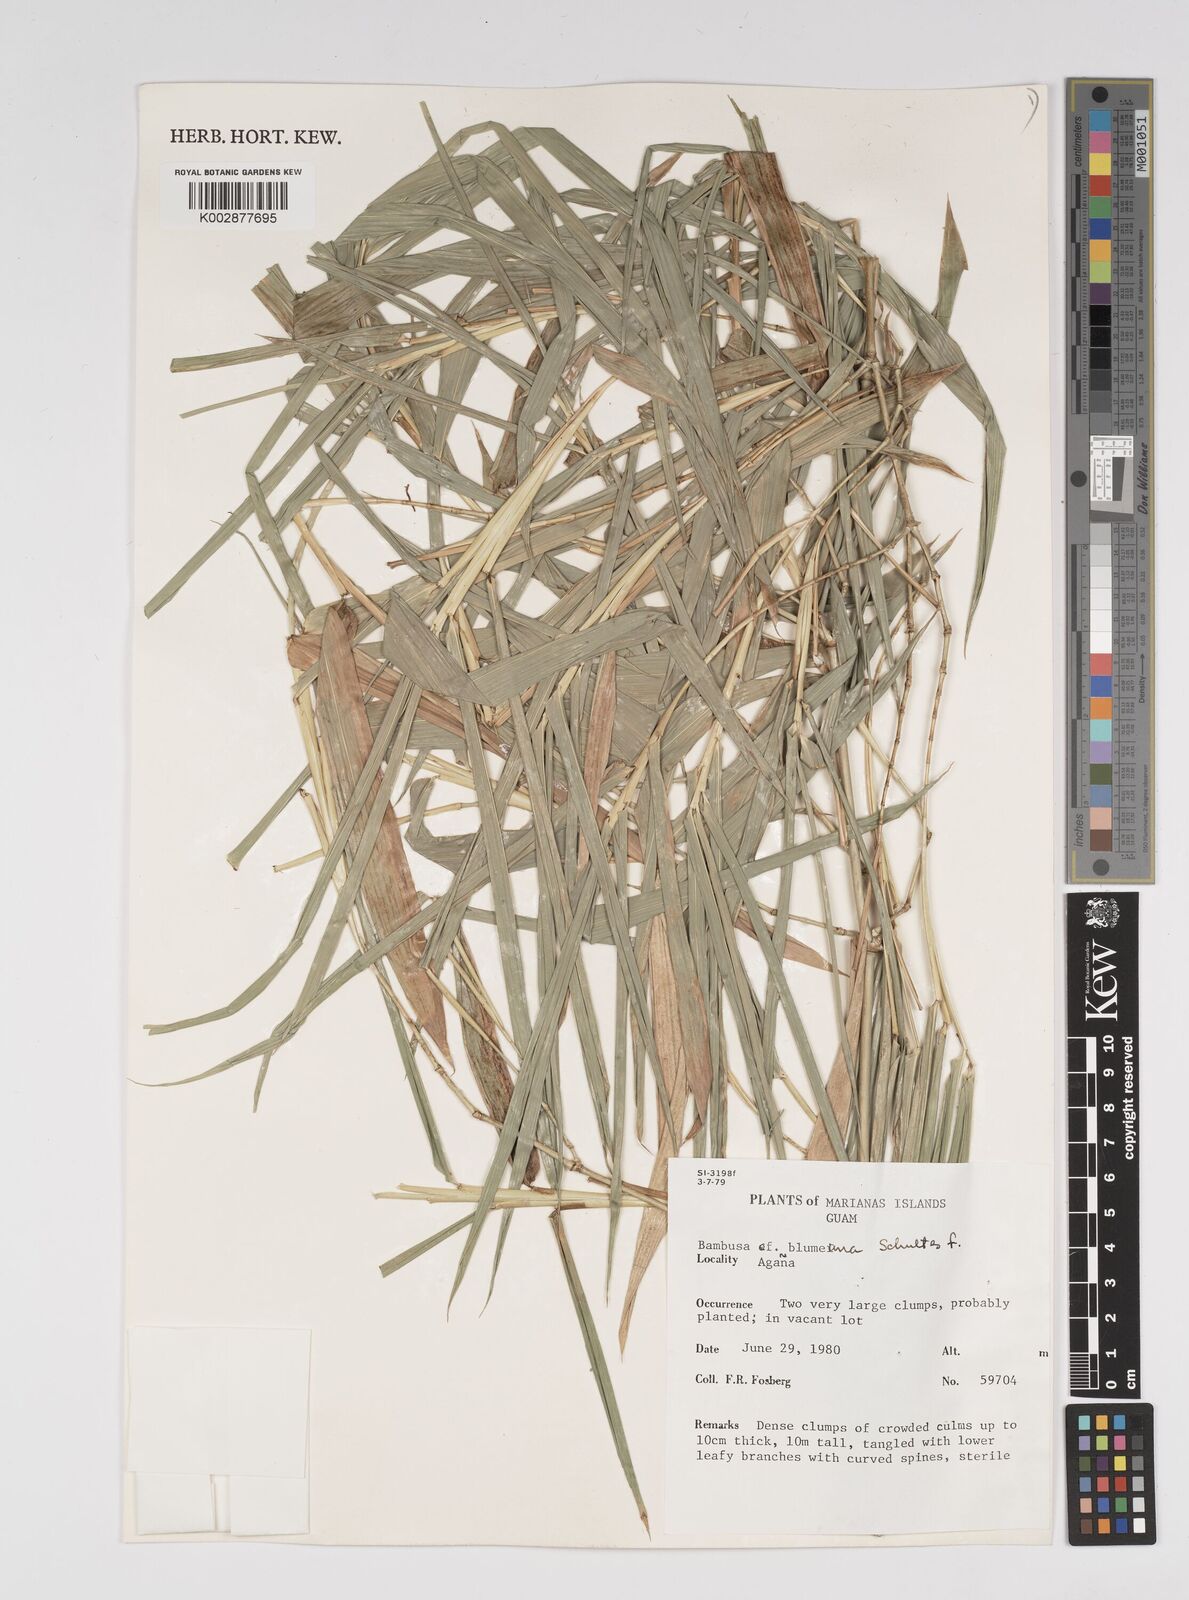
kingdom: Plantae
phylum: Tracheophyta
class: Liliopsida
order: Poales
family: Poaceae
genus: Bambusa
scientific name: Bambusa spinosa
